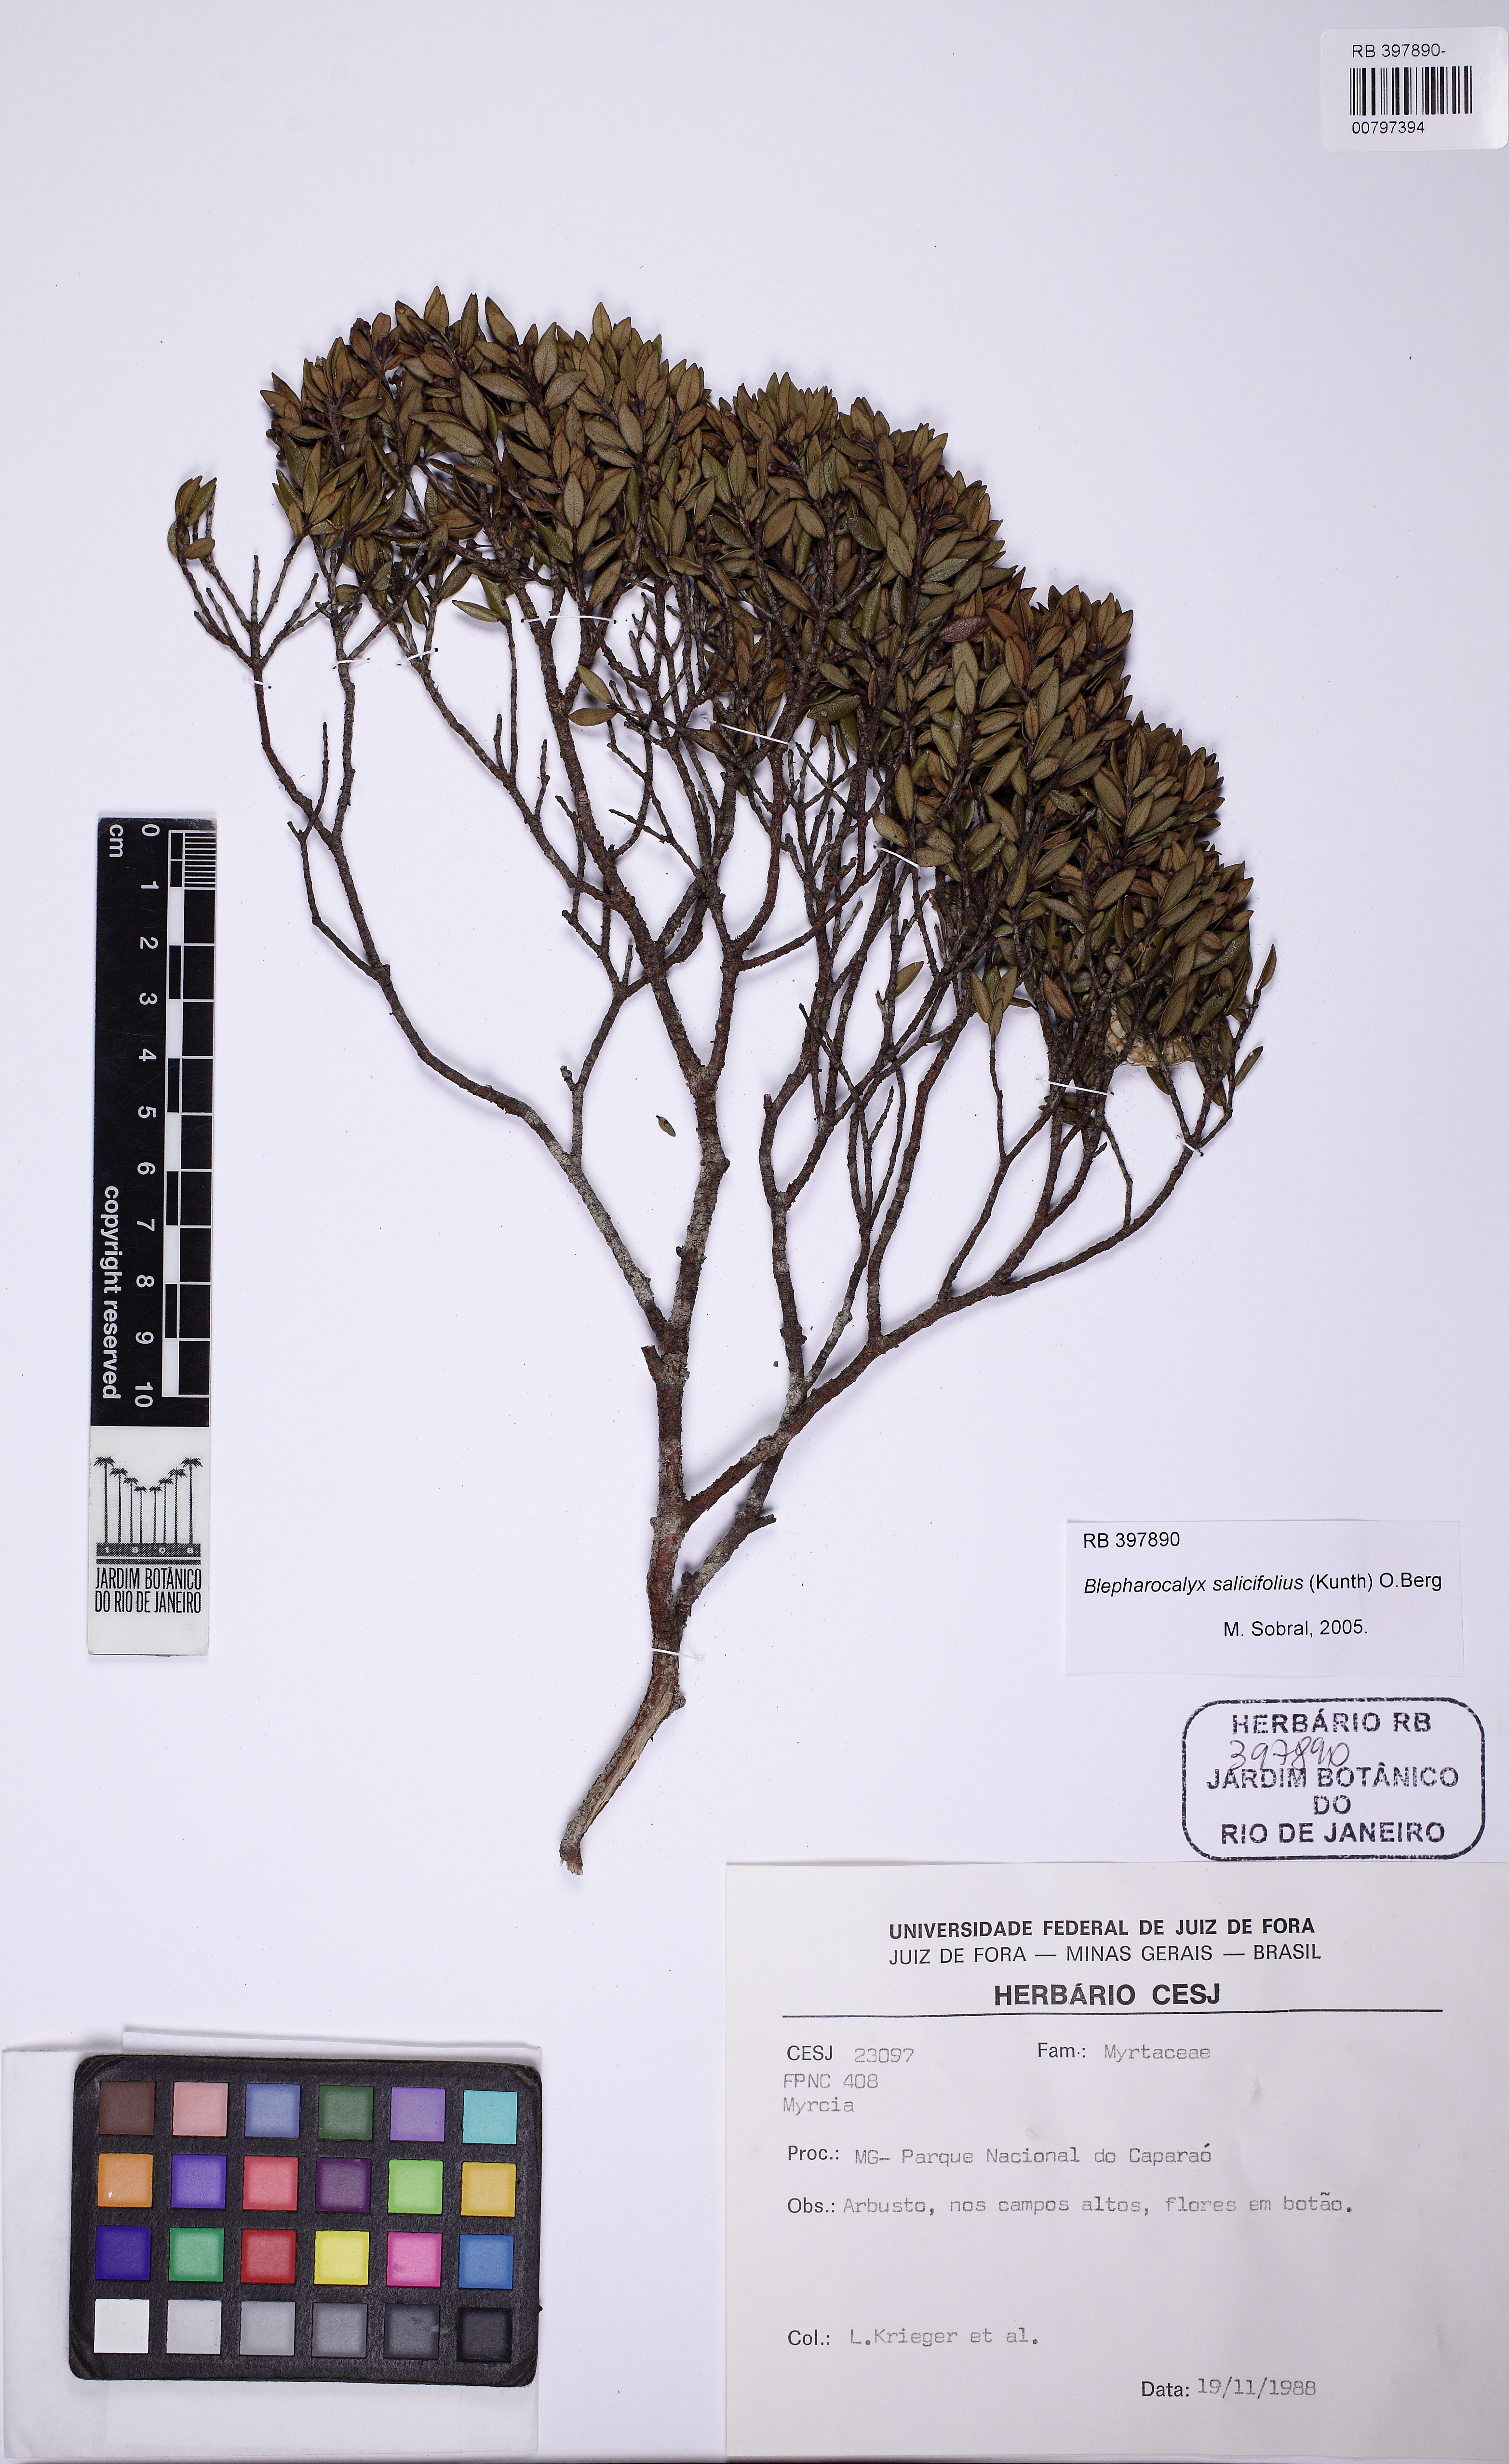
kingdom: Plantae
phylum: Tracheophyta
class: Magnoliopsida
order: Myrtales
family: Myrtaceae
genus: Blepharocalyx
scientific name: Blepharocalyx salicifolius
